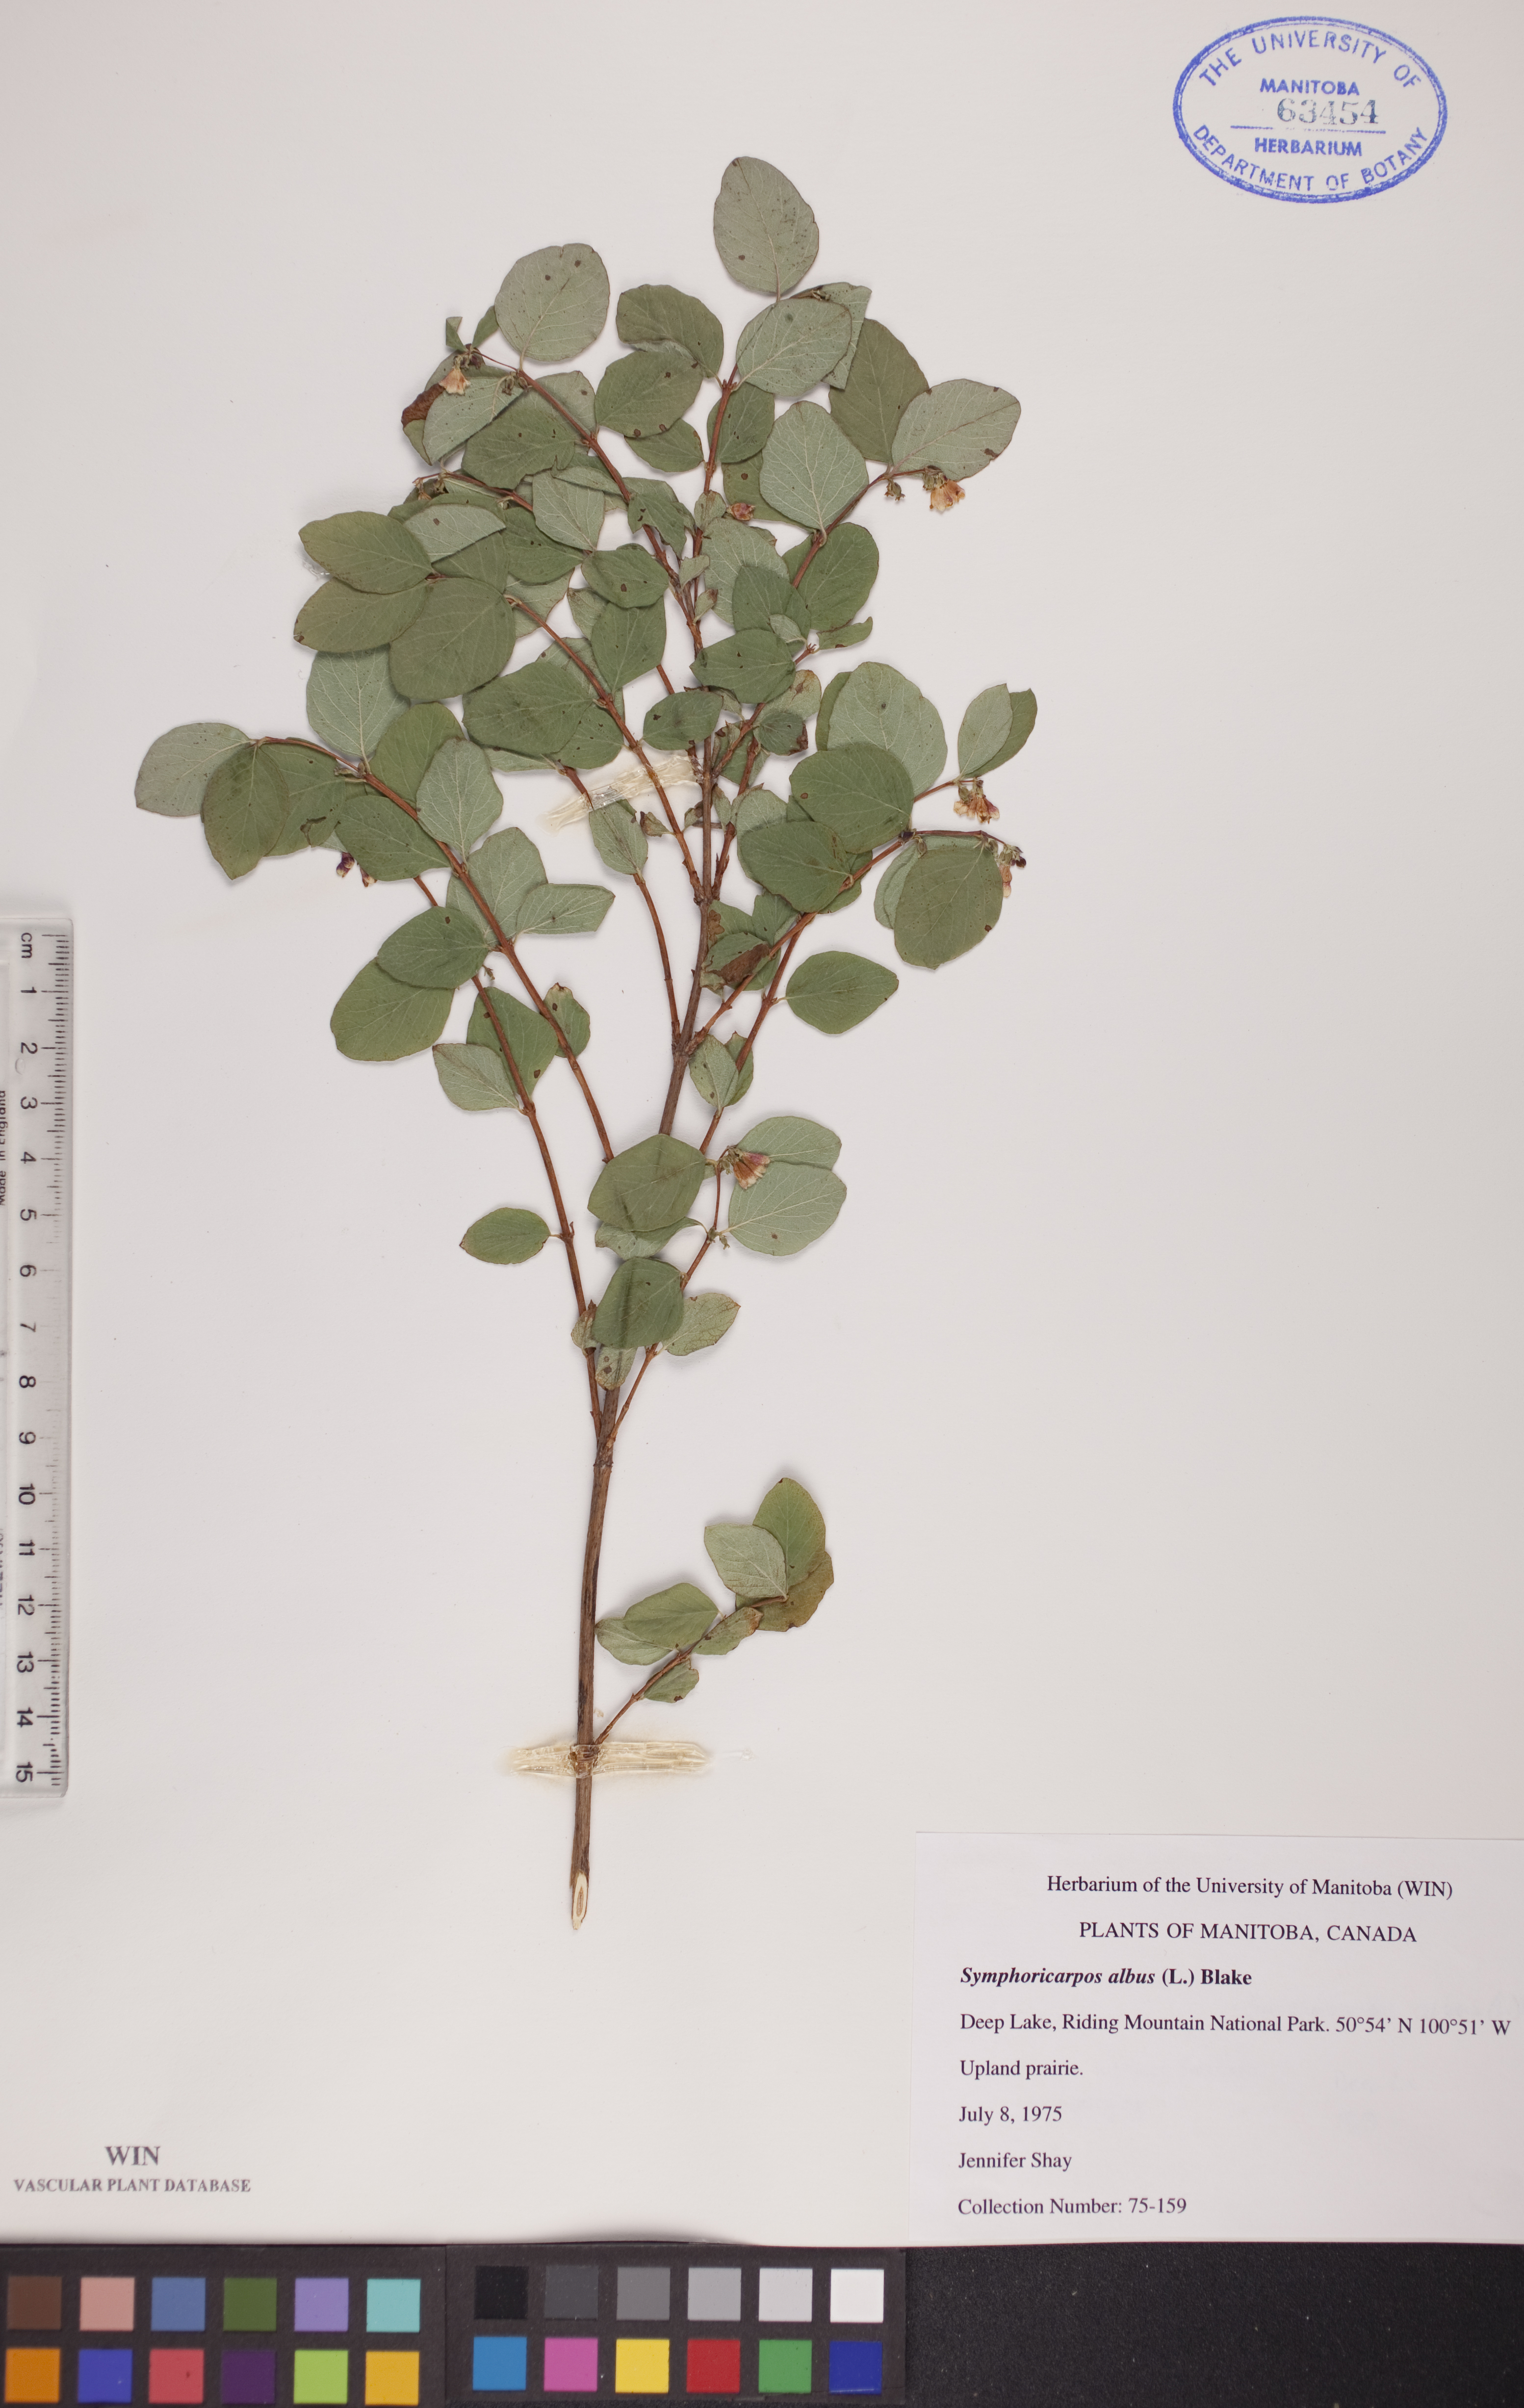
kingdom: Plantae
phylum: Tracheophyta
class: Magnoliopsida
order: Dipsacales
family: Caprifoliaceae
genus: Symphoricarpos
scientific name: Symphoricarpos albus
